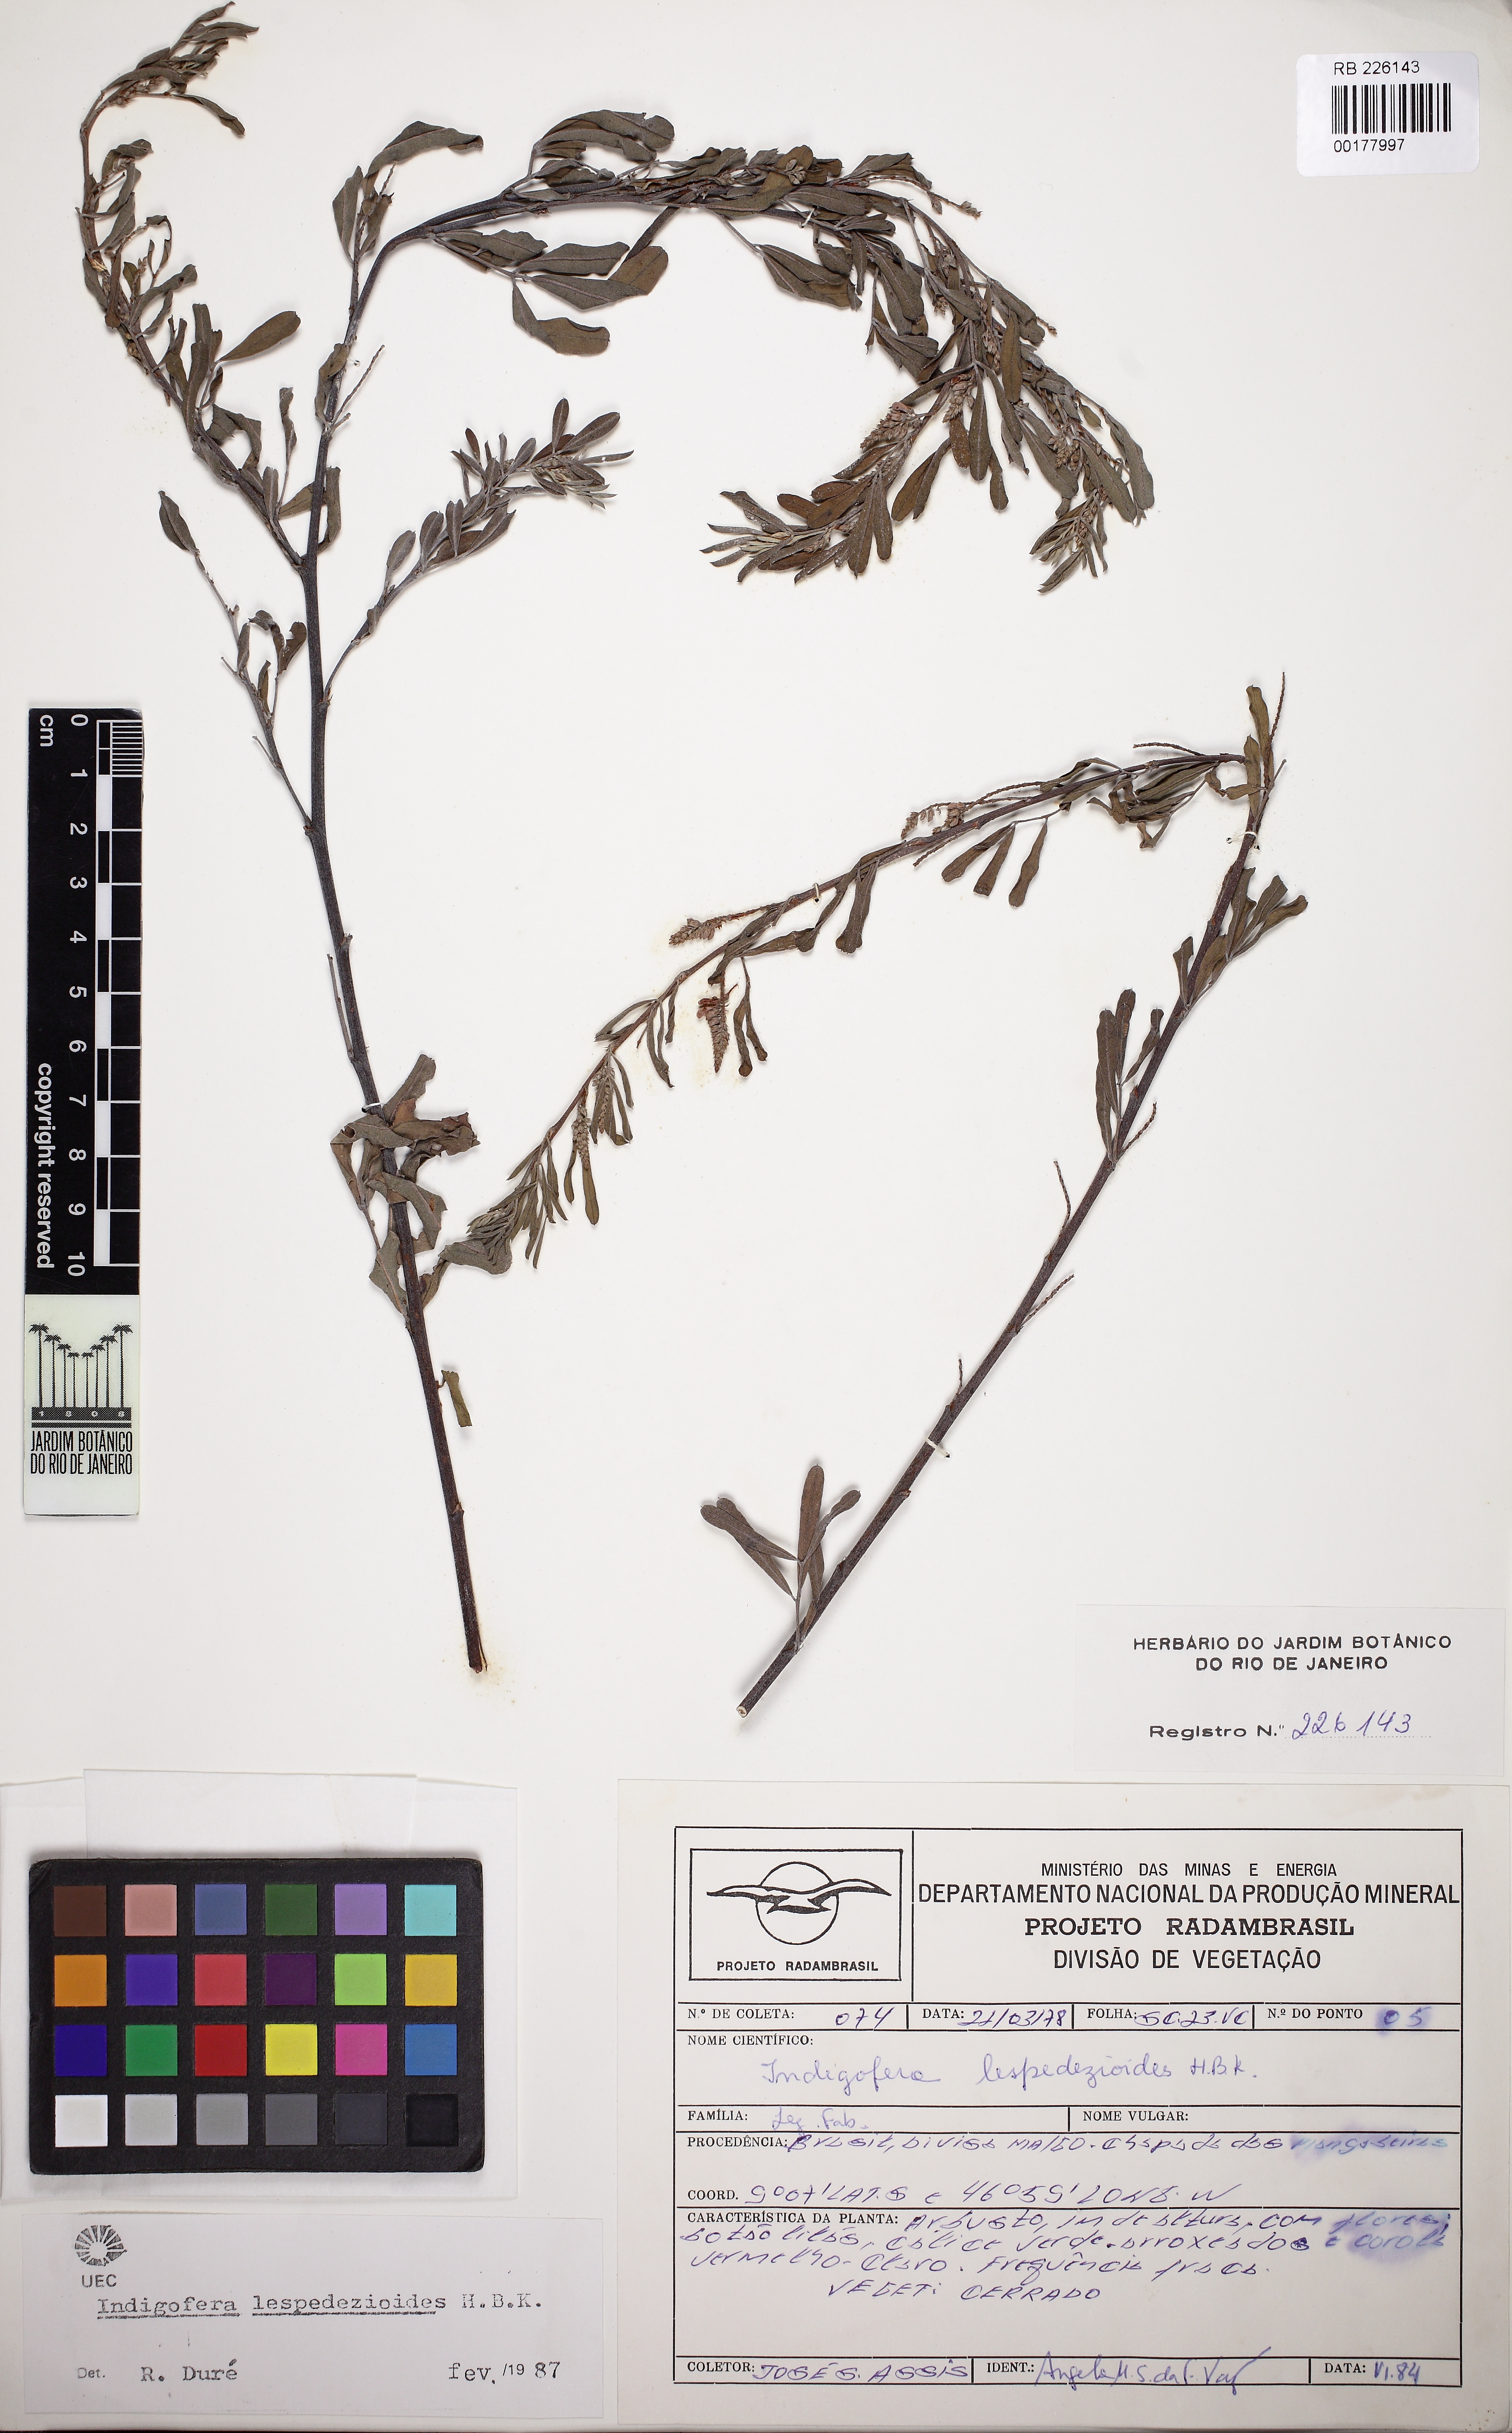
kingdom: Plantae
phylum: Tracheophyta
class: Magnoliopsida
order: Fabales
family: Fabaceae
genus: Indigofera
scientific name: Indigofera lespedezioides
